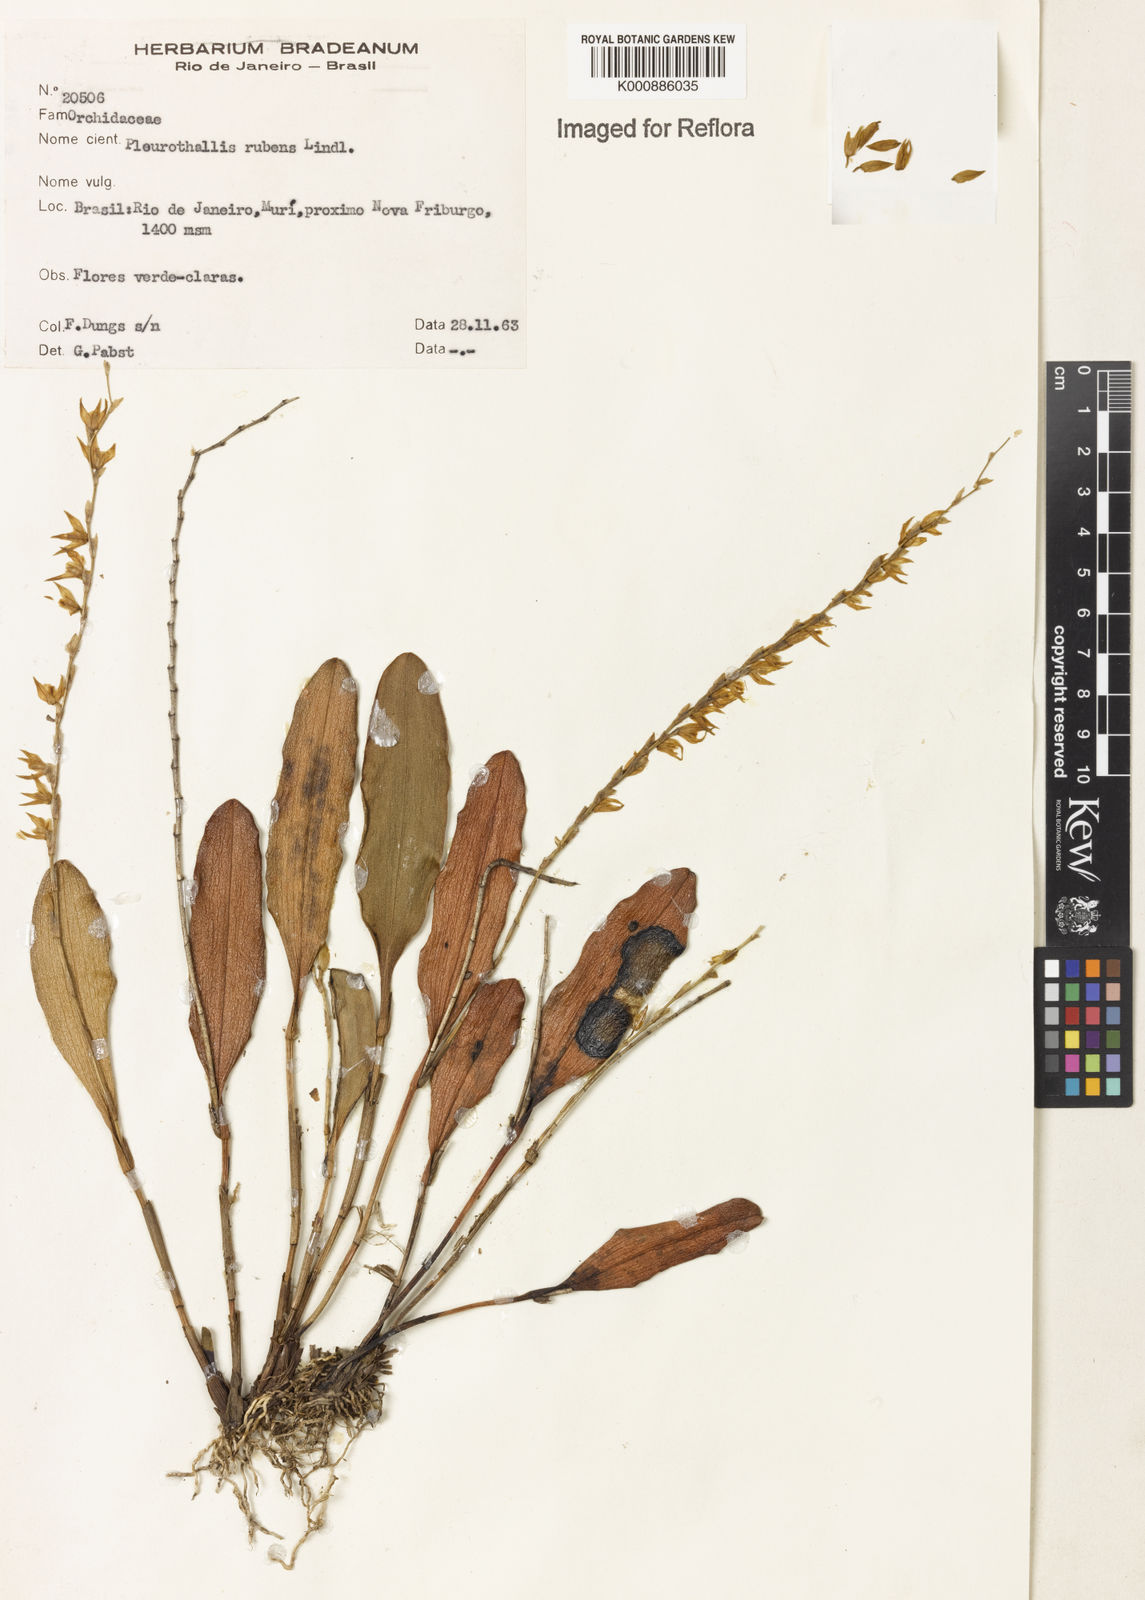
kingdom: Plantae
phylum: Tracheophyta
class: Liliopsida
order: Asparagales
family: Orchidaceae
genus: Stelis
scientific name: Stelis montserratii
